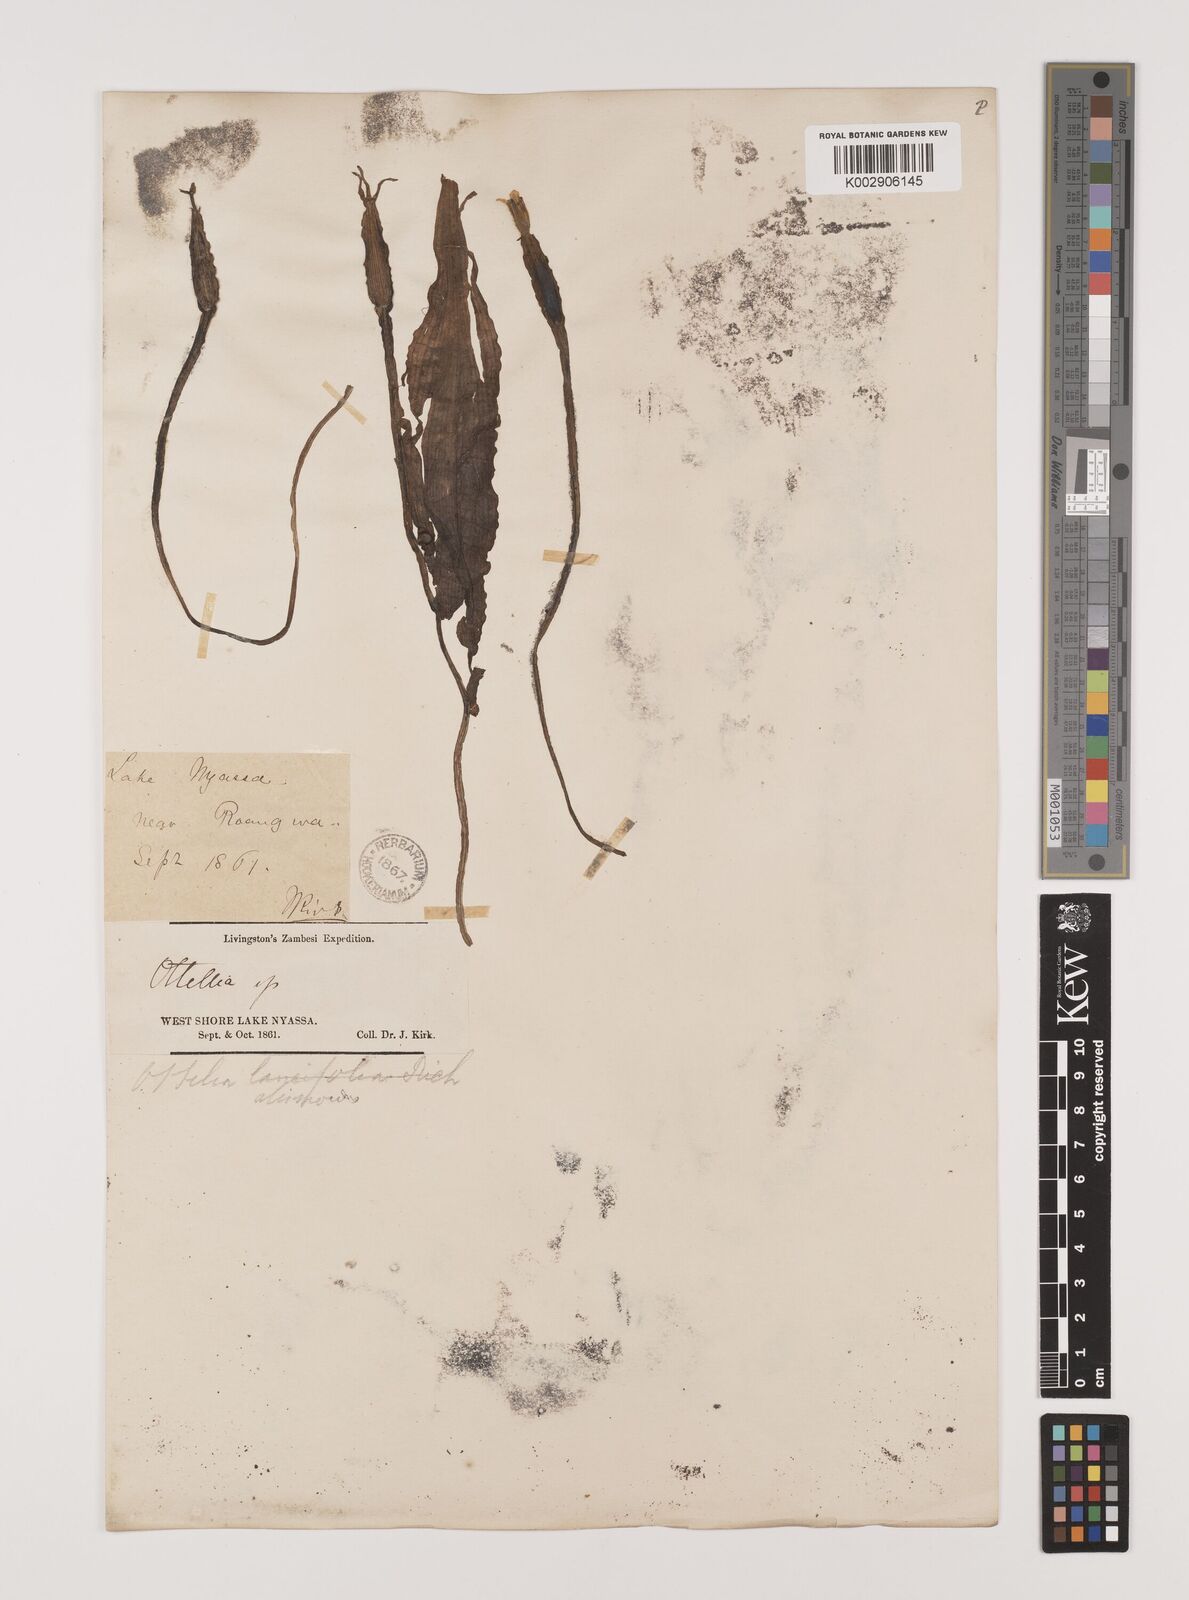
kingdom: Plantae
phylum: Tracheophyta
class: Liliopsida
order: Alismatales
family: Hydrocharitaceae
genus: Ottelia
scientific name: Ottelia ulvifolia
